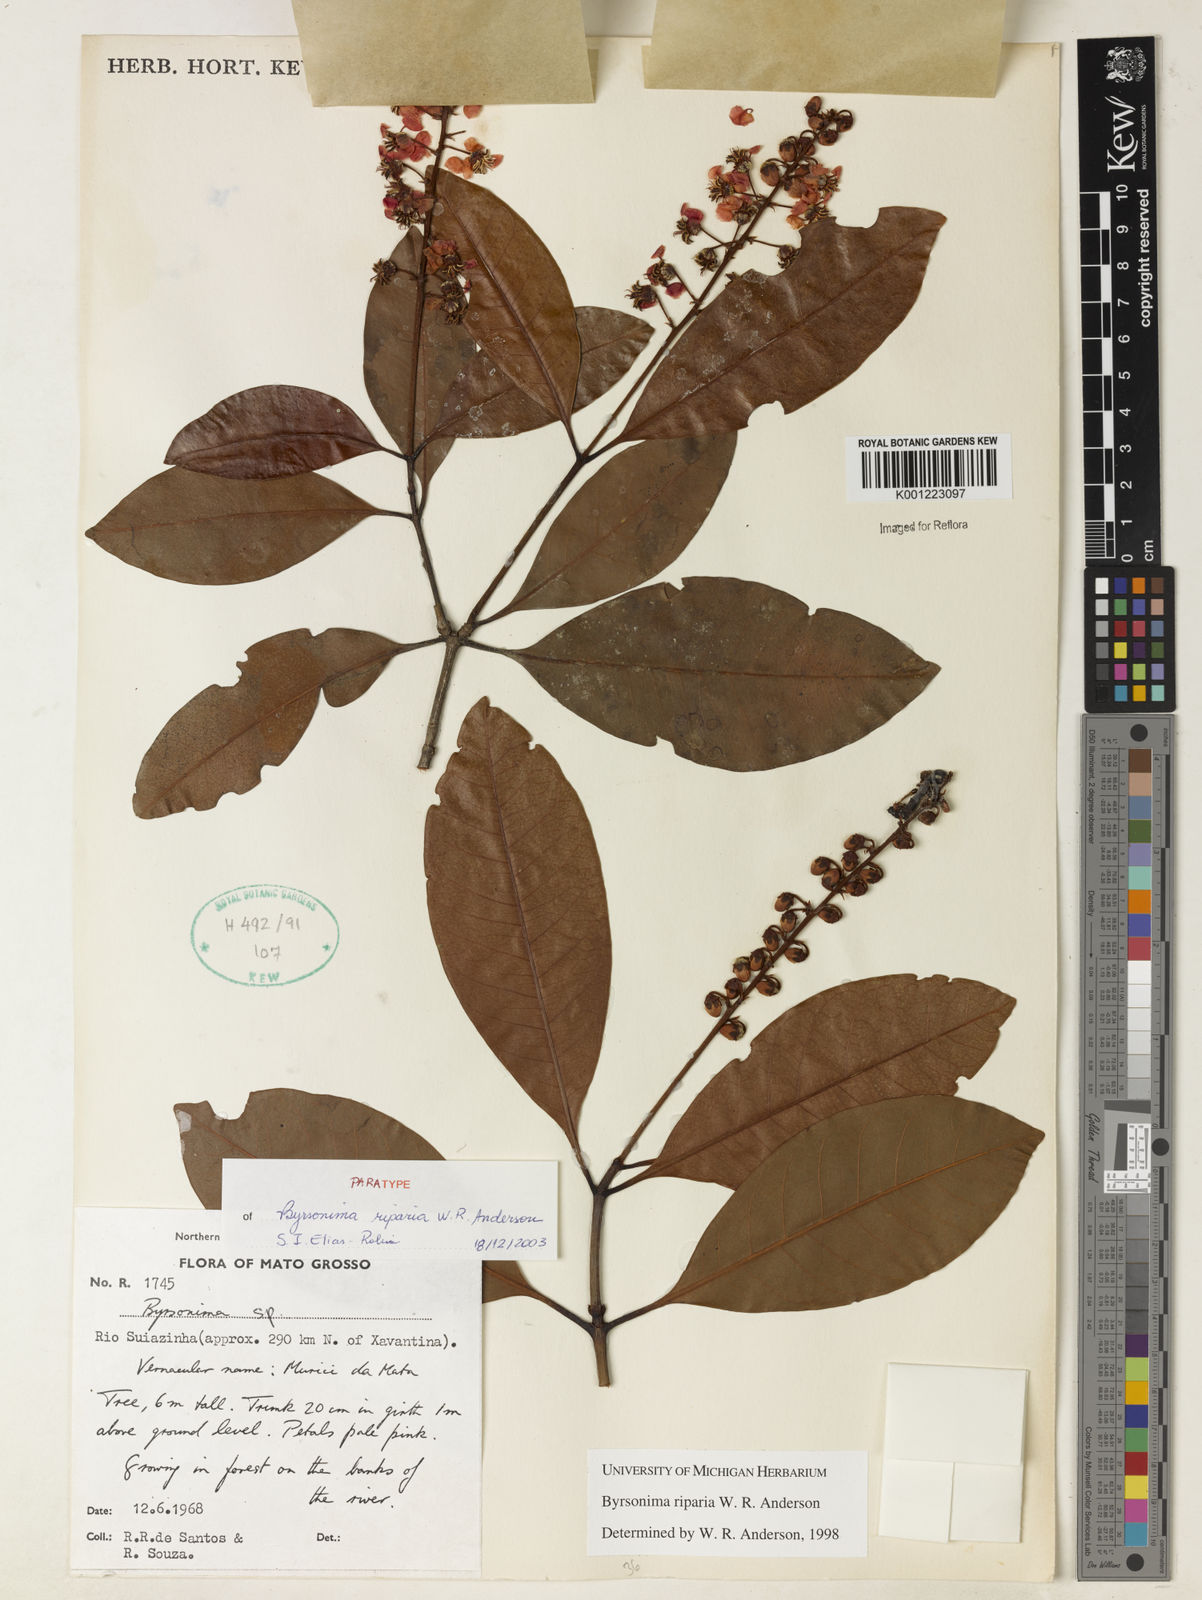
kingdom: Plantae
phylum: Tracheophyta
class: Magnoliopsida
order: Malpighiales
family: Malpighiaceae
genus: Byrsonima
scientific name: Byrsonima riparia
